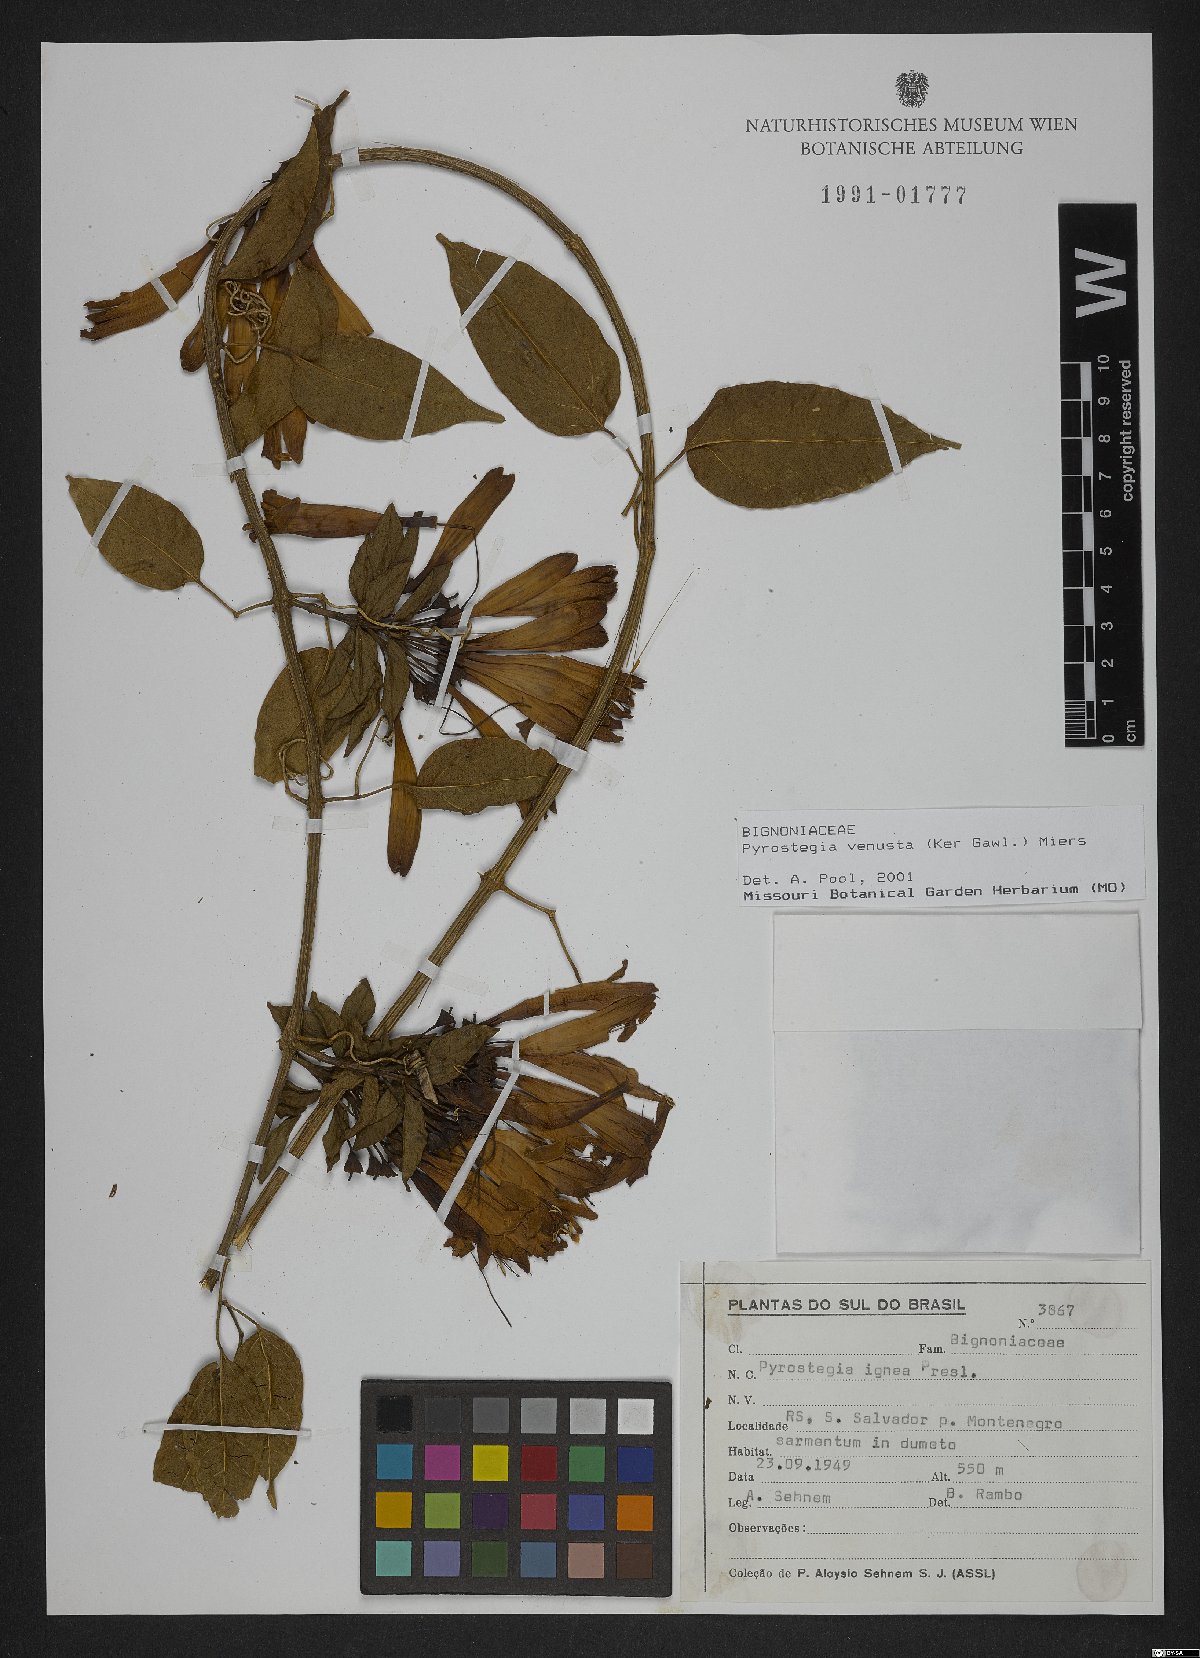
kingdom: Plantae
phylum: Tracheophyta
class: Magnoliopsida
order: Lamiales
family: Bignoniaceae
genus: Pyrostegia
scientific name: Pyrostegia venusta
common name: Flamevine
